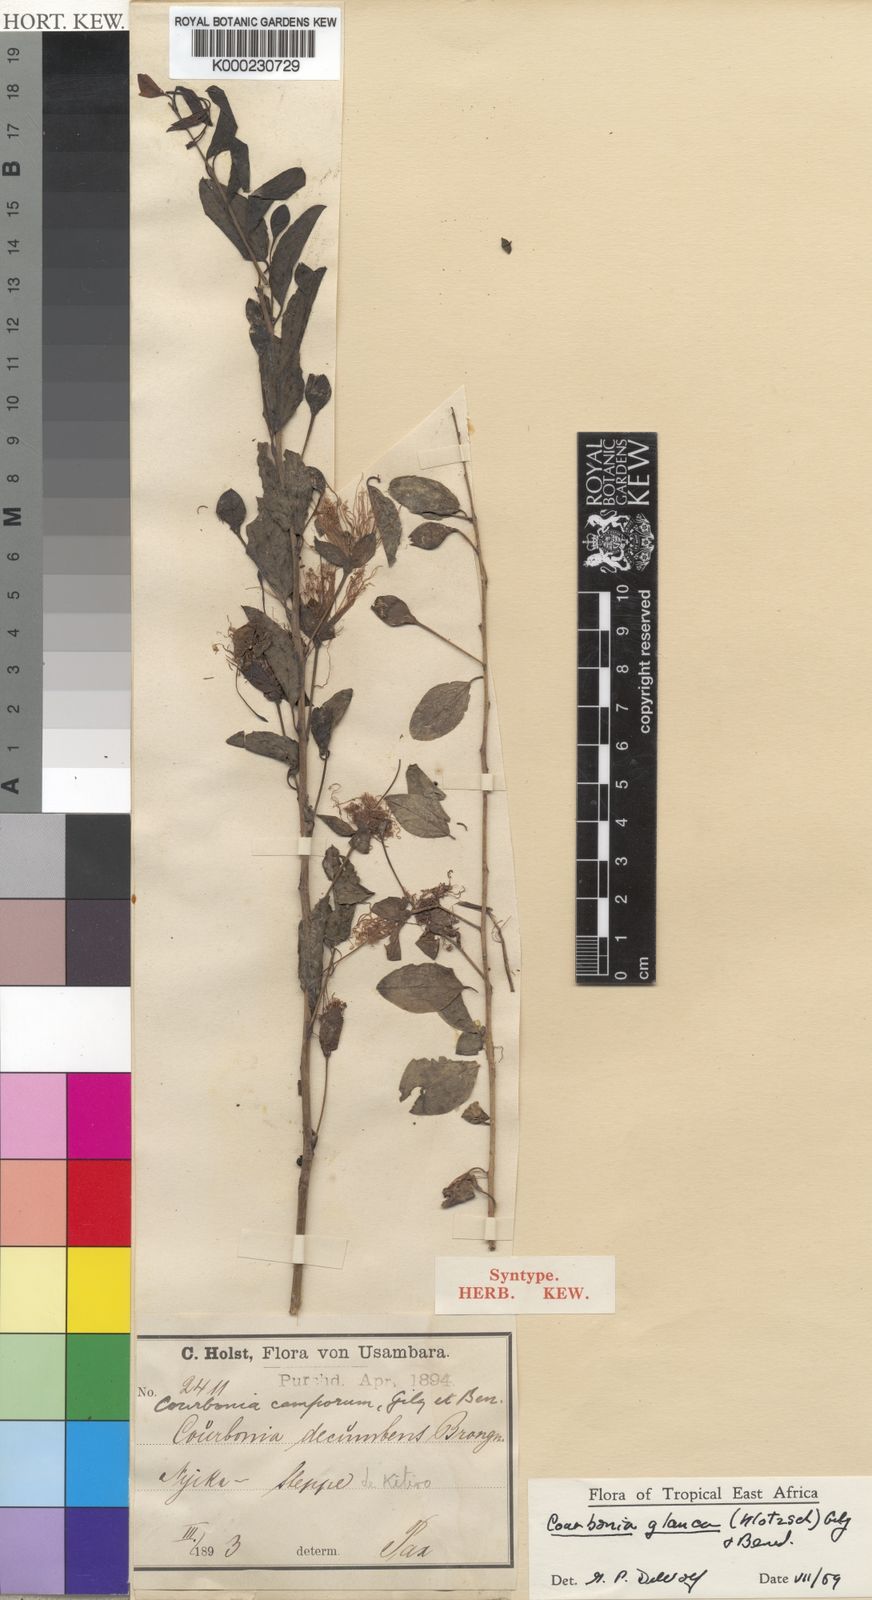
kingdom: Plantae
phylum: Tracheophyta
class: Magnoliopsida
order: Brassicales
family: Capparaceae
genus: Maerua
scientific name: Maerua edulis
